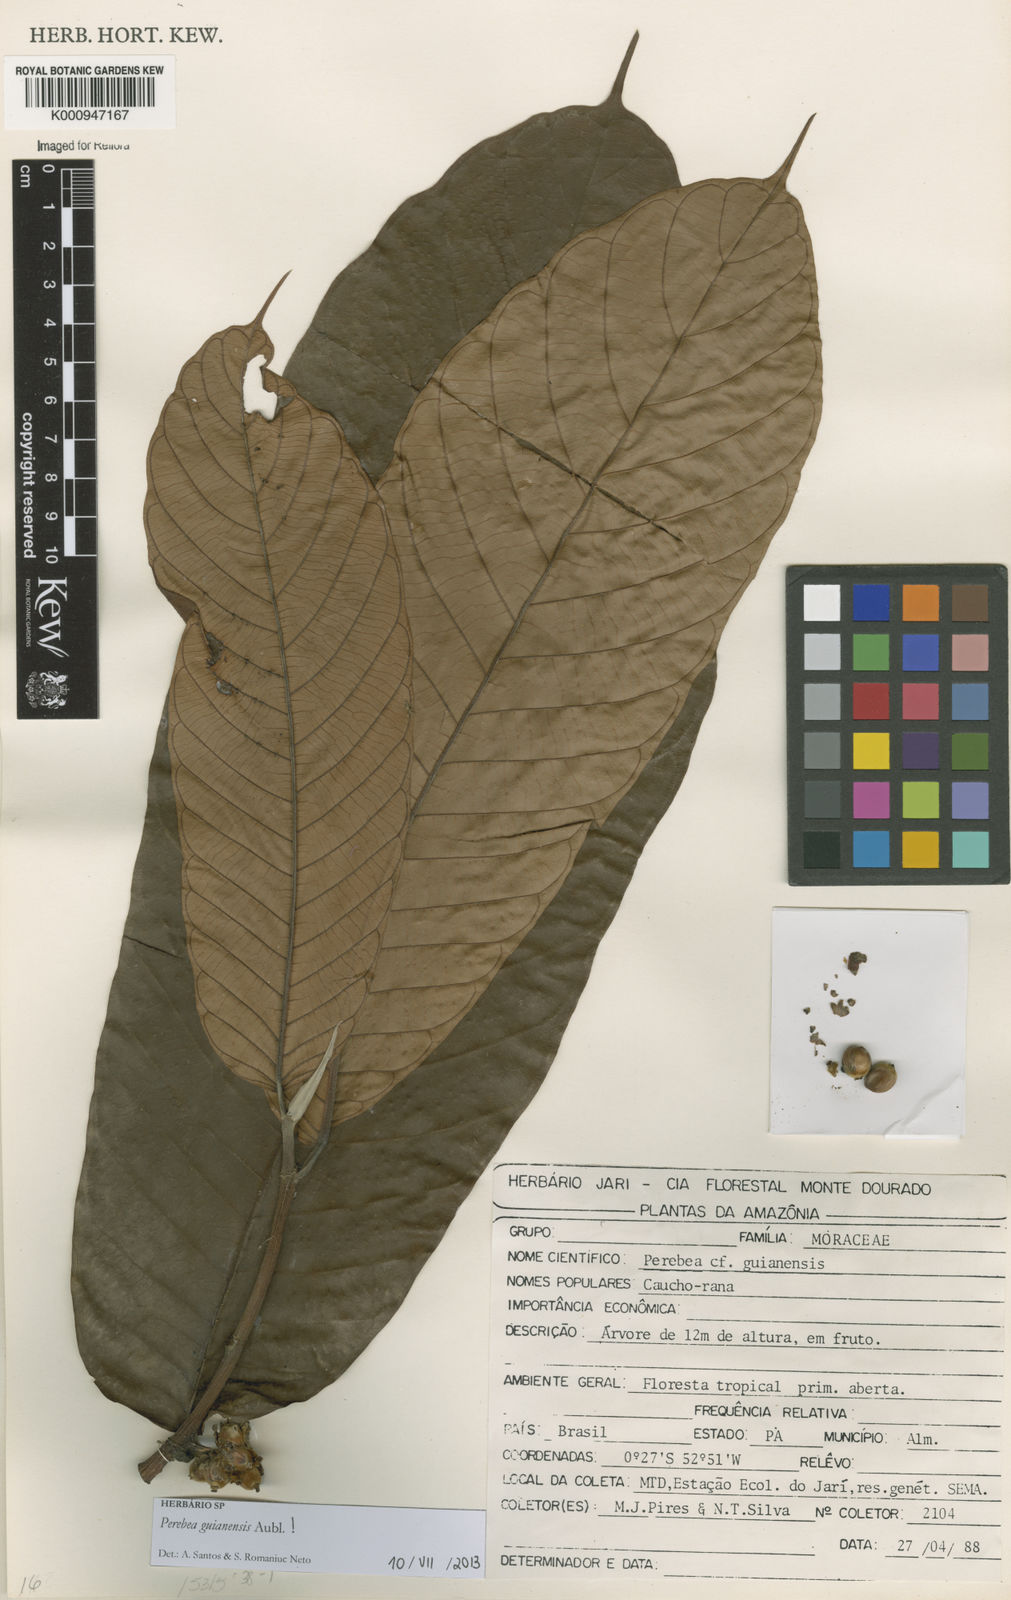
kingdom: Plantae
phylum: Tracheophyta
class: Magnoliopsida
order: Rosales
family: Moraceae
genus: Perebea
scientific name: Perebea guianensis
